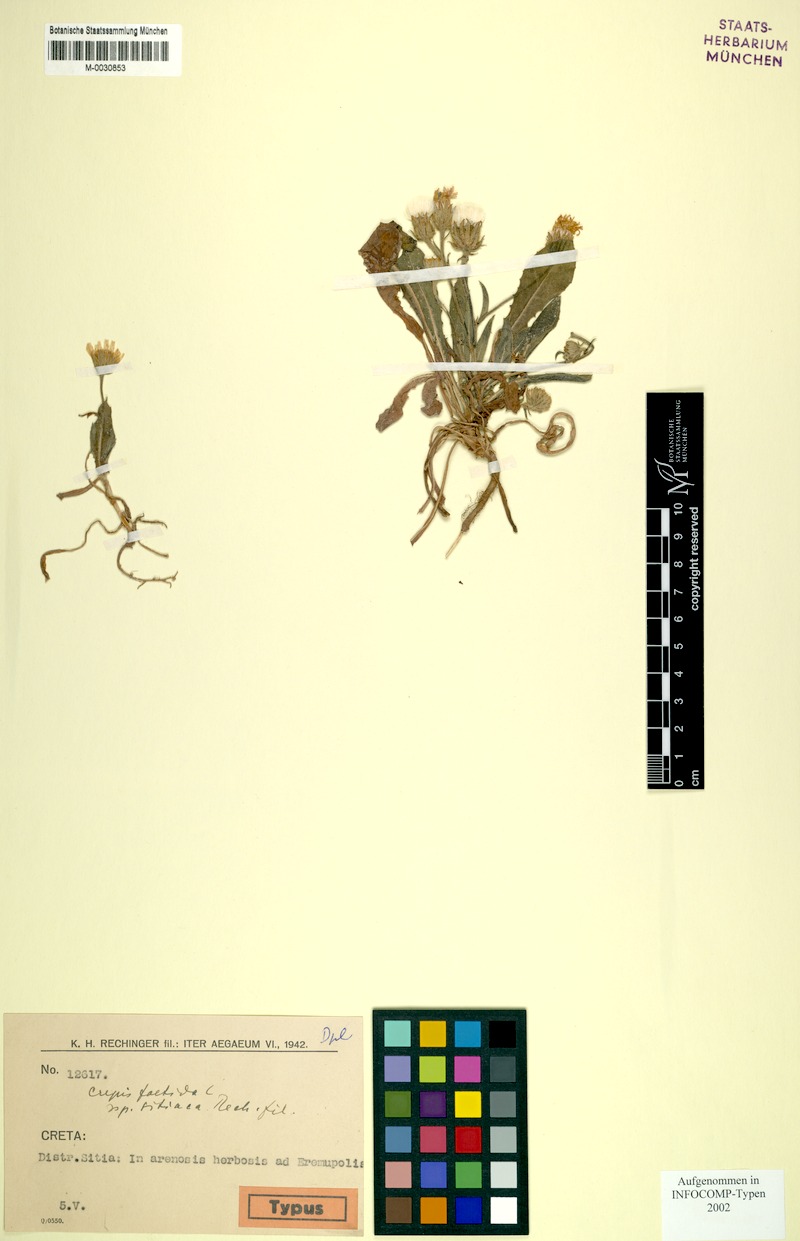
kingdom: Plantae
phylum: Tracheophyta
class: Magnoliopsida
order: Asterales
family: Asteraceae
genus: Crepis
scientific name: Crepis foetida
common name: Stinking hawk's-beard
